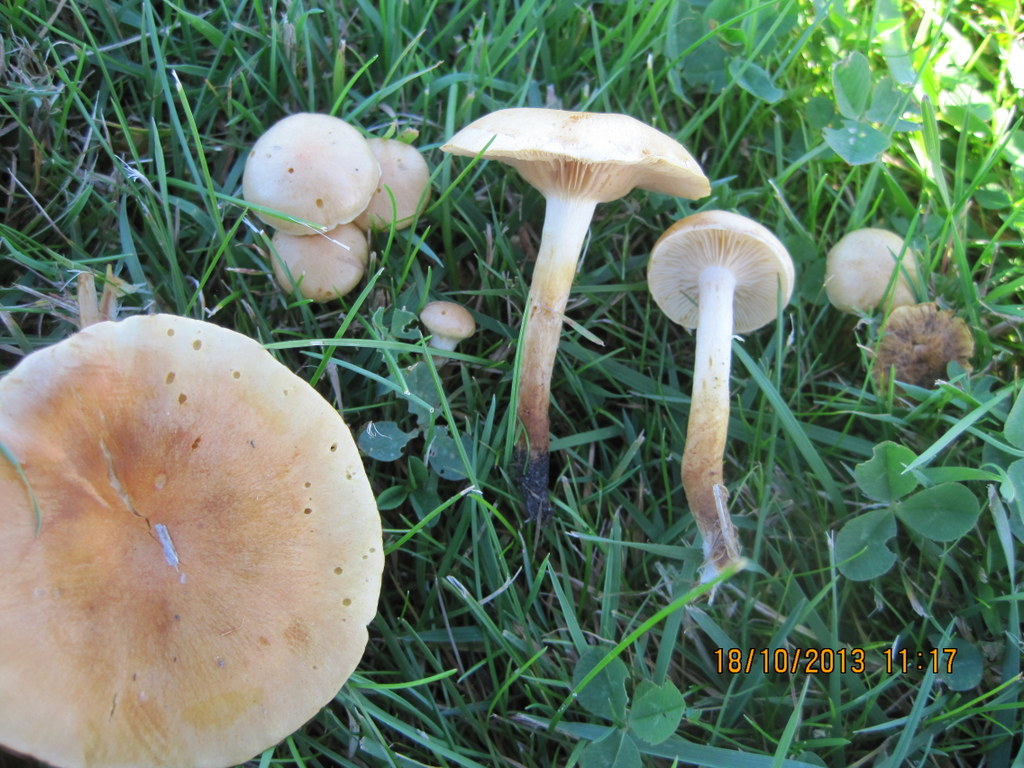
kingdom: Fungi
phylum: Basidiomycota
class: Agaricomycetes
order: Agaricales
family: Strophariaceae
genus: Pholiota
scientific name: Pholiota gummosa
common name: grøngul skælhat
